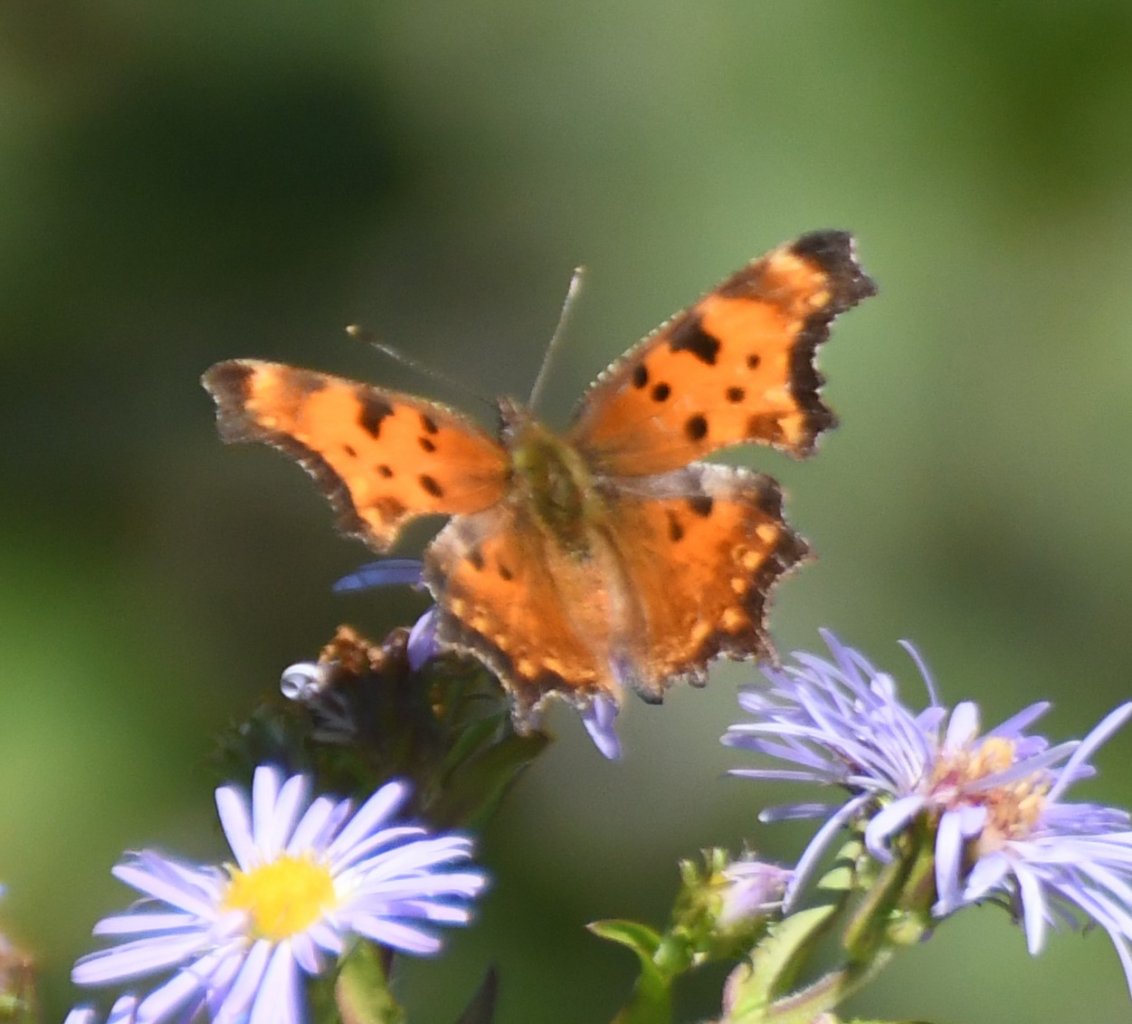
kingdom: Animalia
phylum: Arthropoda
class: Insecta
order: Lepidoptera
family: Nymphalidae
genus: Polygonia
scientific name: Polygonia gracilis
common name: Hoary Comma
